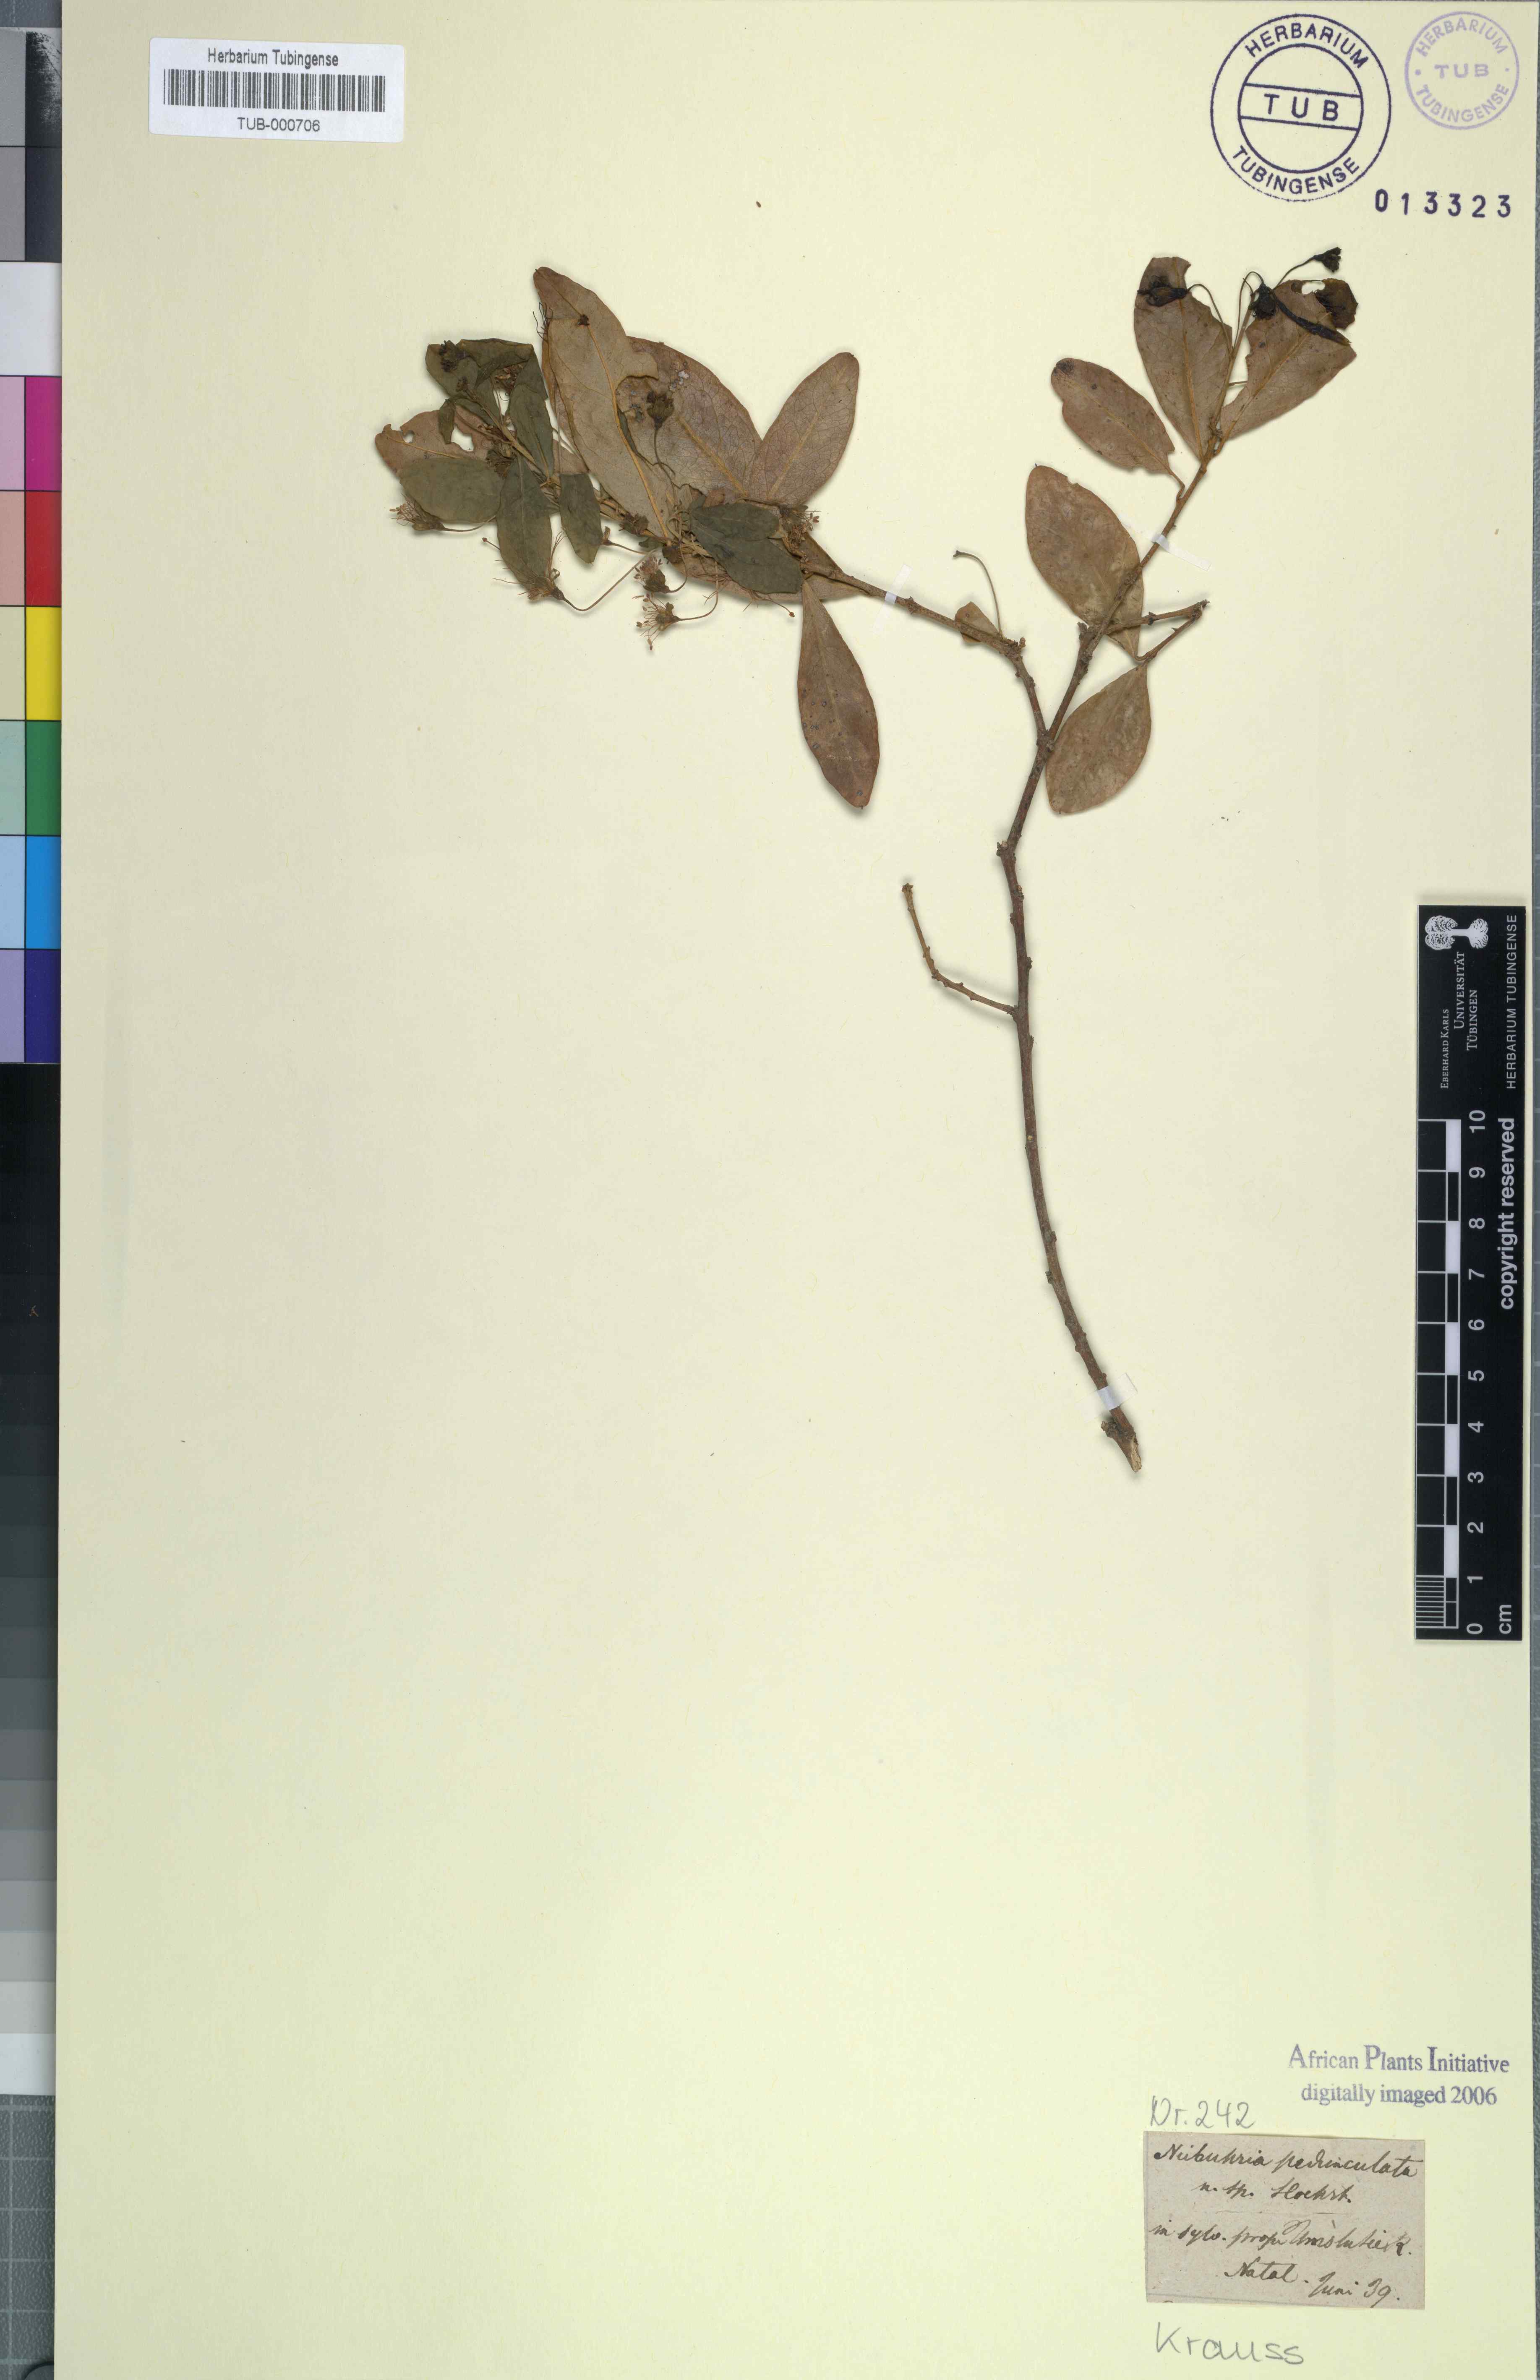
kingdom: Plantae
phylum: Tracheophyta
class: Magnoliopsida
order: Brassicales
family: Capparaceae
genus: Maerua
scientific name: Maerua cafra
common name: Bush maerua
